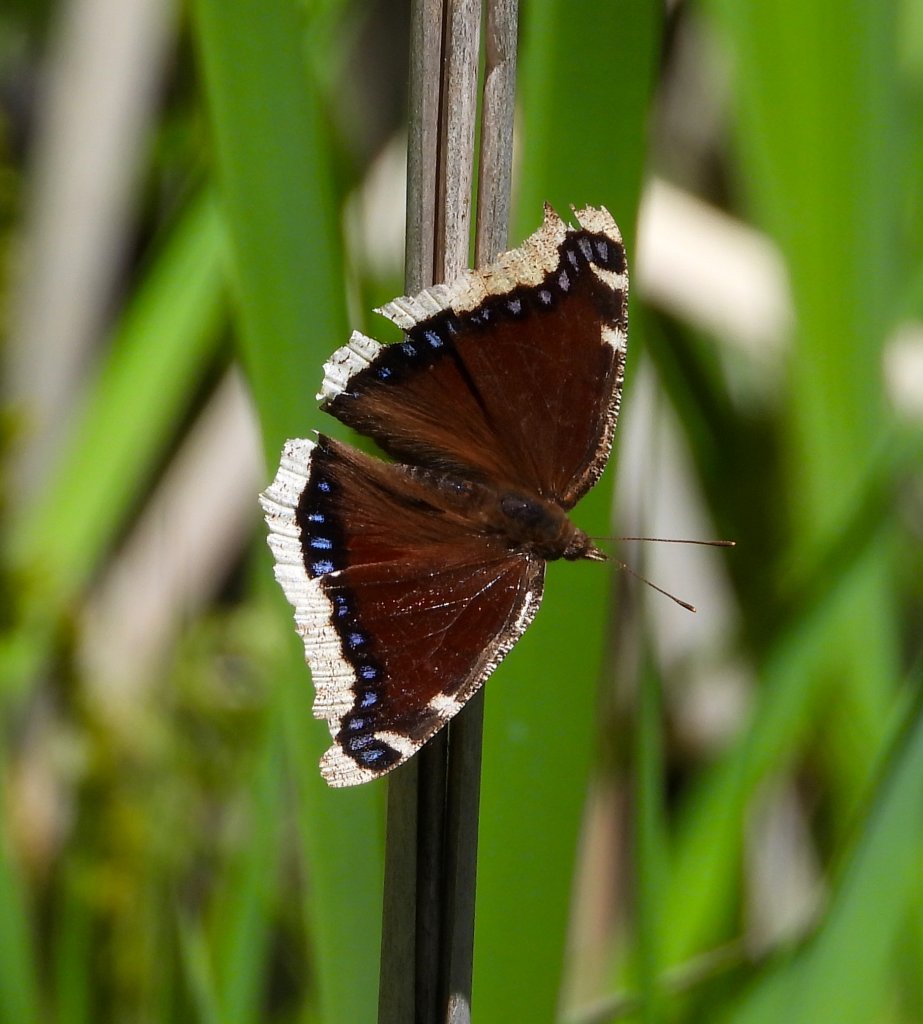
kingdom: Animalia
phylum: Arthropoda
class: Insecta
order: Lepidoptera
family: Nymphalidae
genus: Nymphalis
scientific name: Nymphalis antiopa
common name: Mourning Cloak
